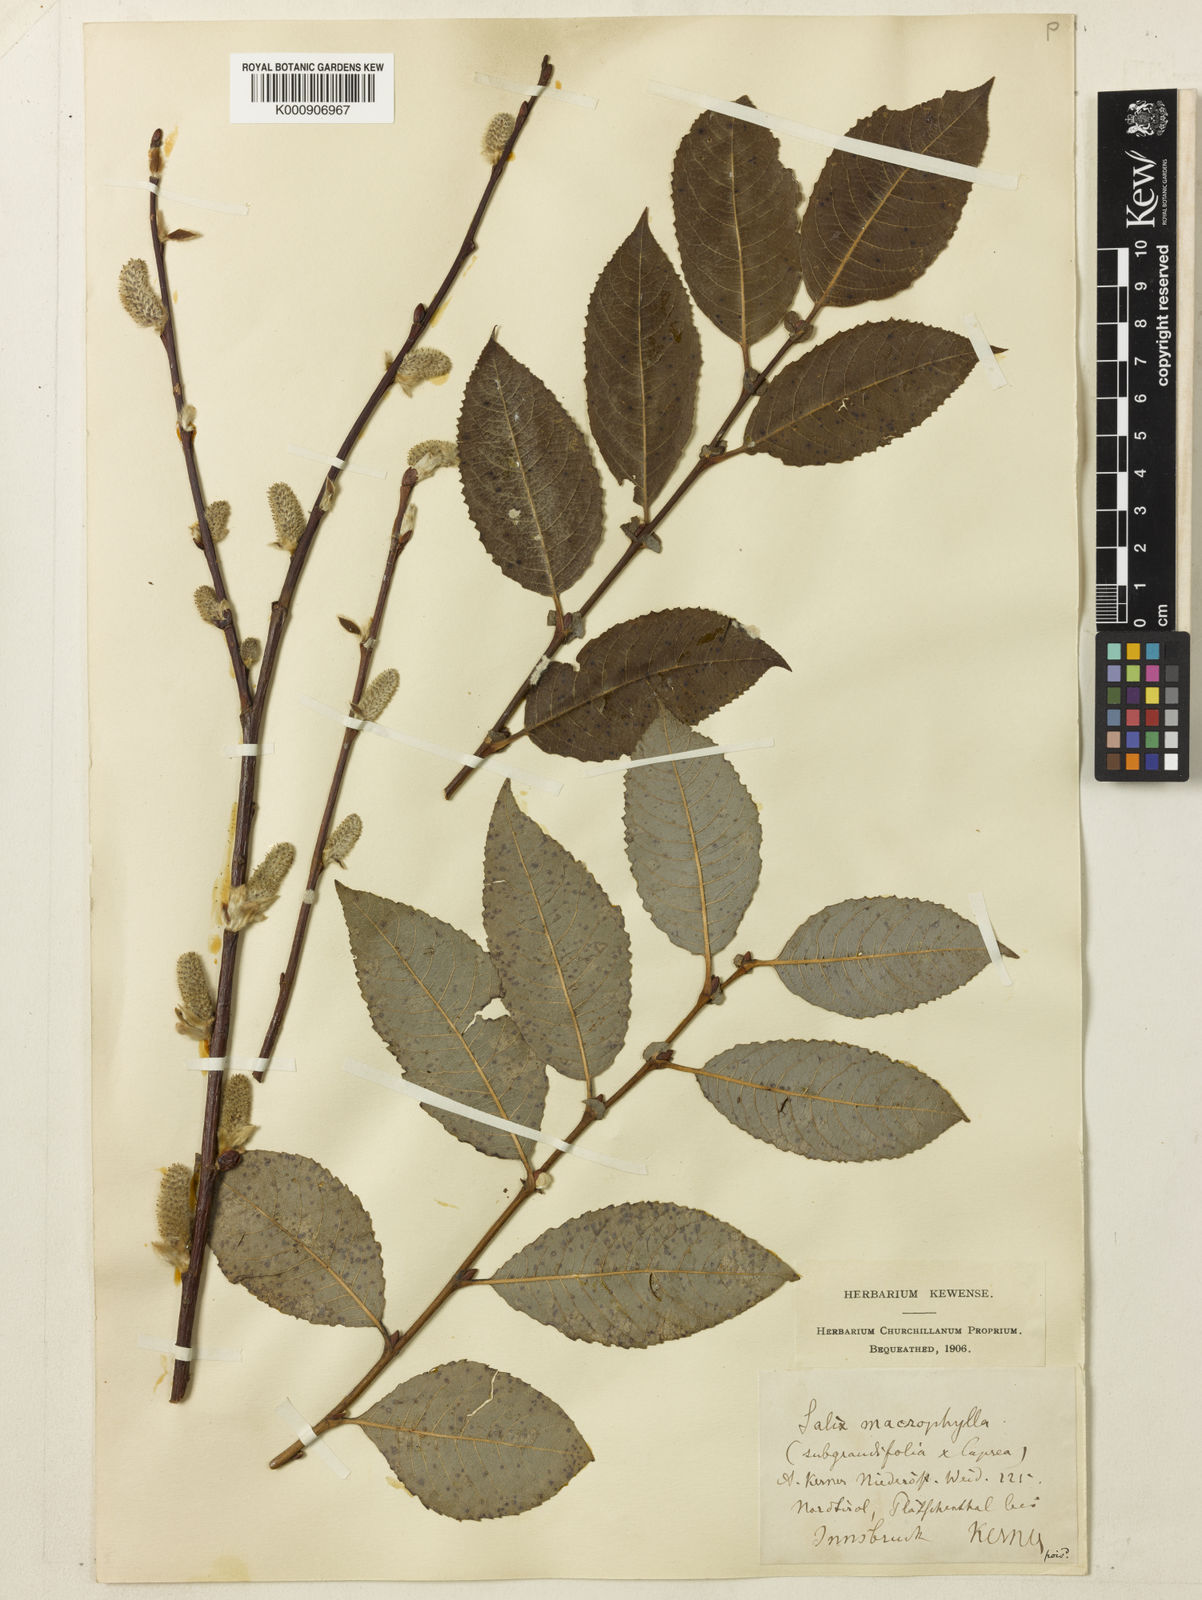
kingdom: Plantae
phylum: Tracheophyta
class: Magnoliopsida
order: Malpighiales
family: Salicaceae
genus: Salix
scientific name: Salix appendiculata
